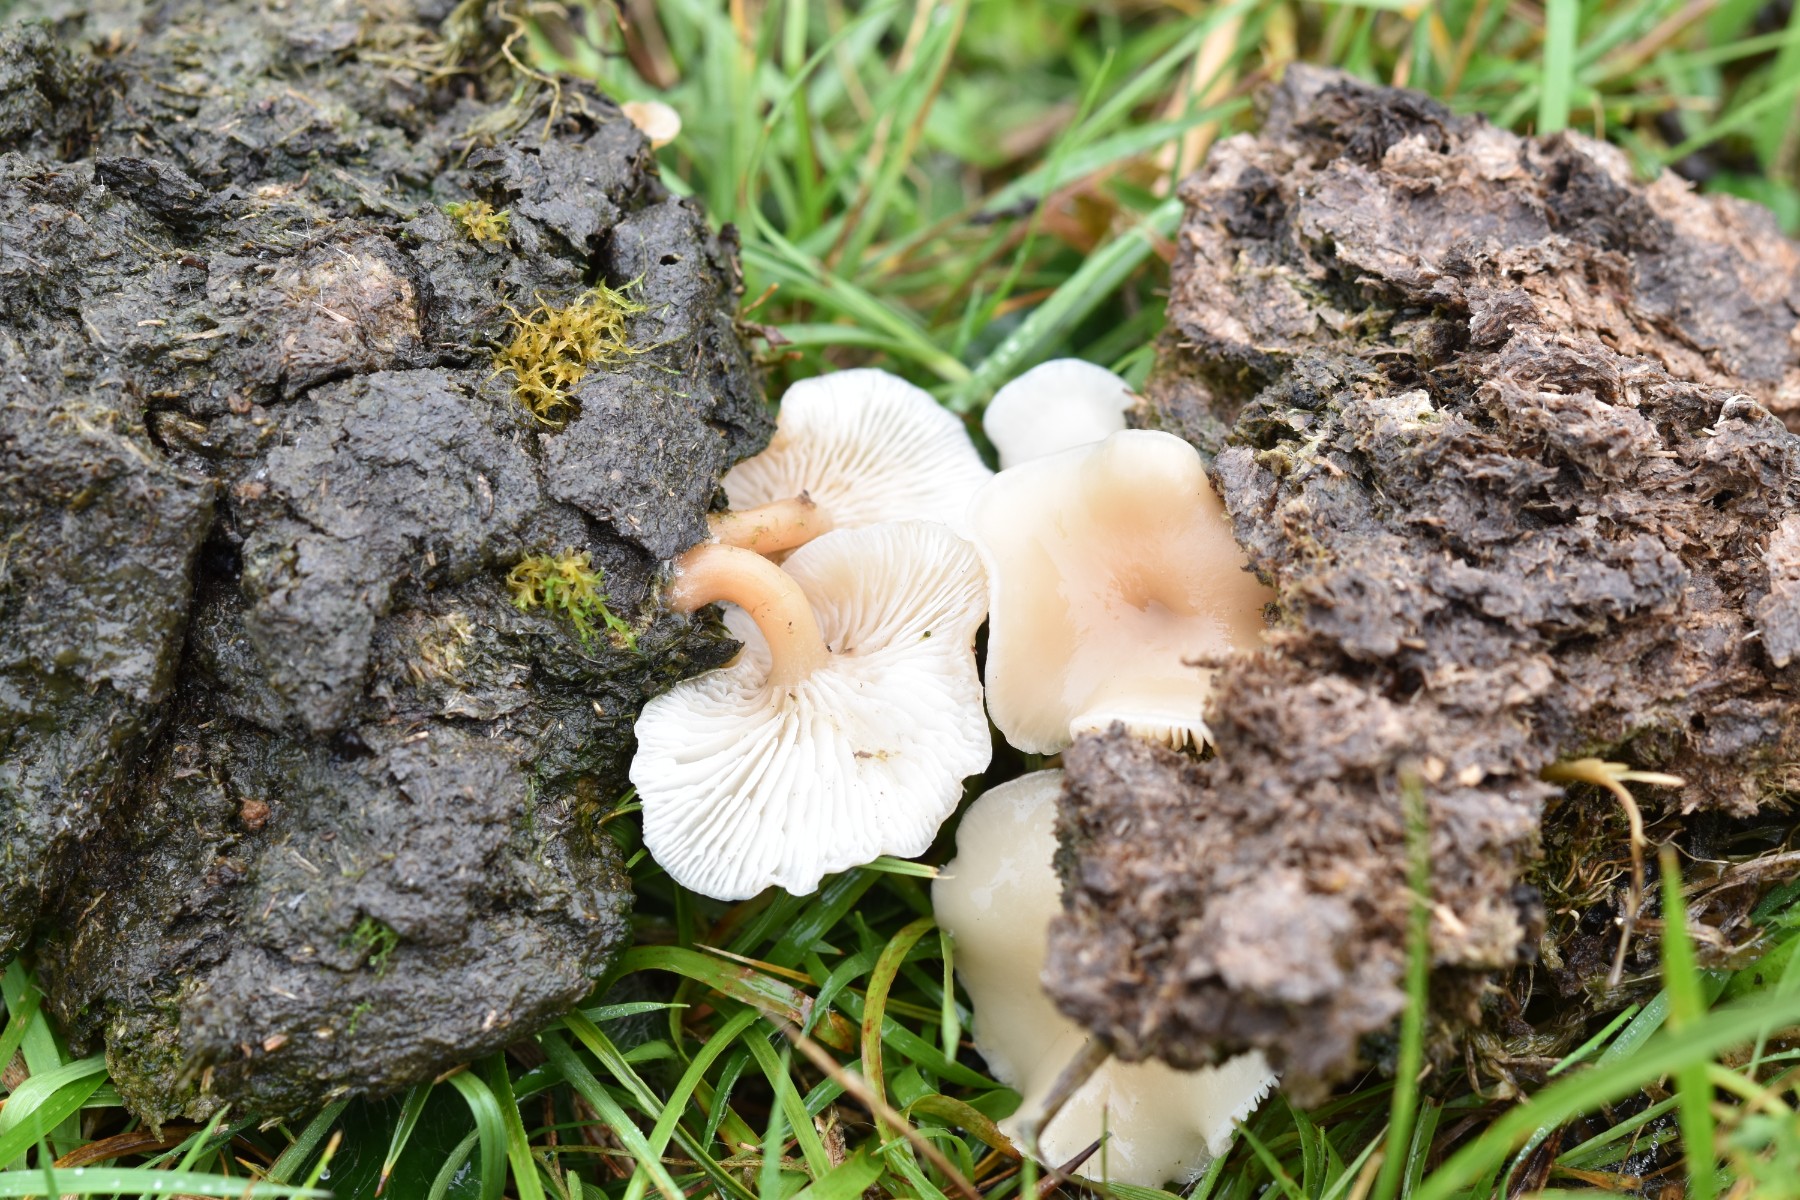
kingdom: Fungi
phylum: Basidiomycota
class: Agaricomycetes
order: Agaricales
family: Tricholomataceae
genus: Clitocybe
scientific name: Clitocybe rivulosa
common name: eng-tragthat
